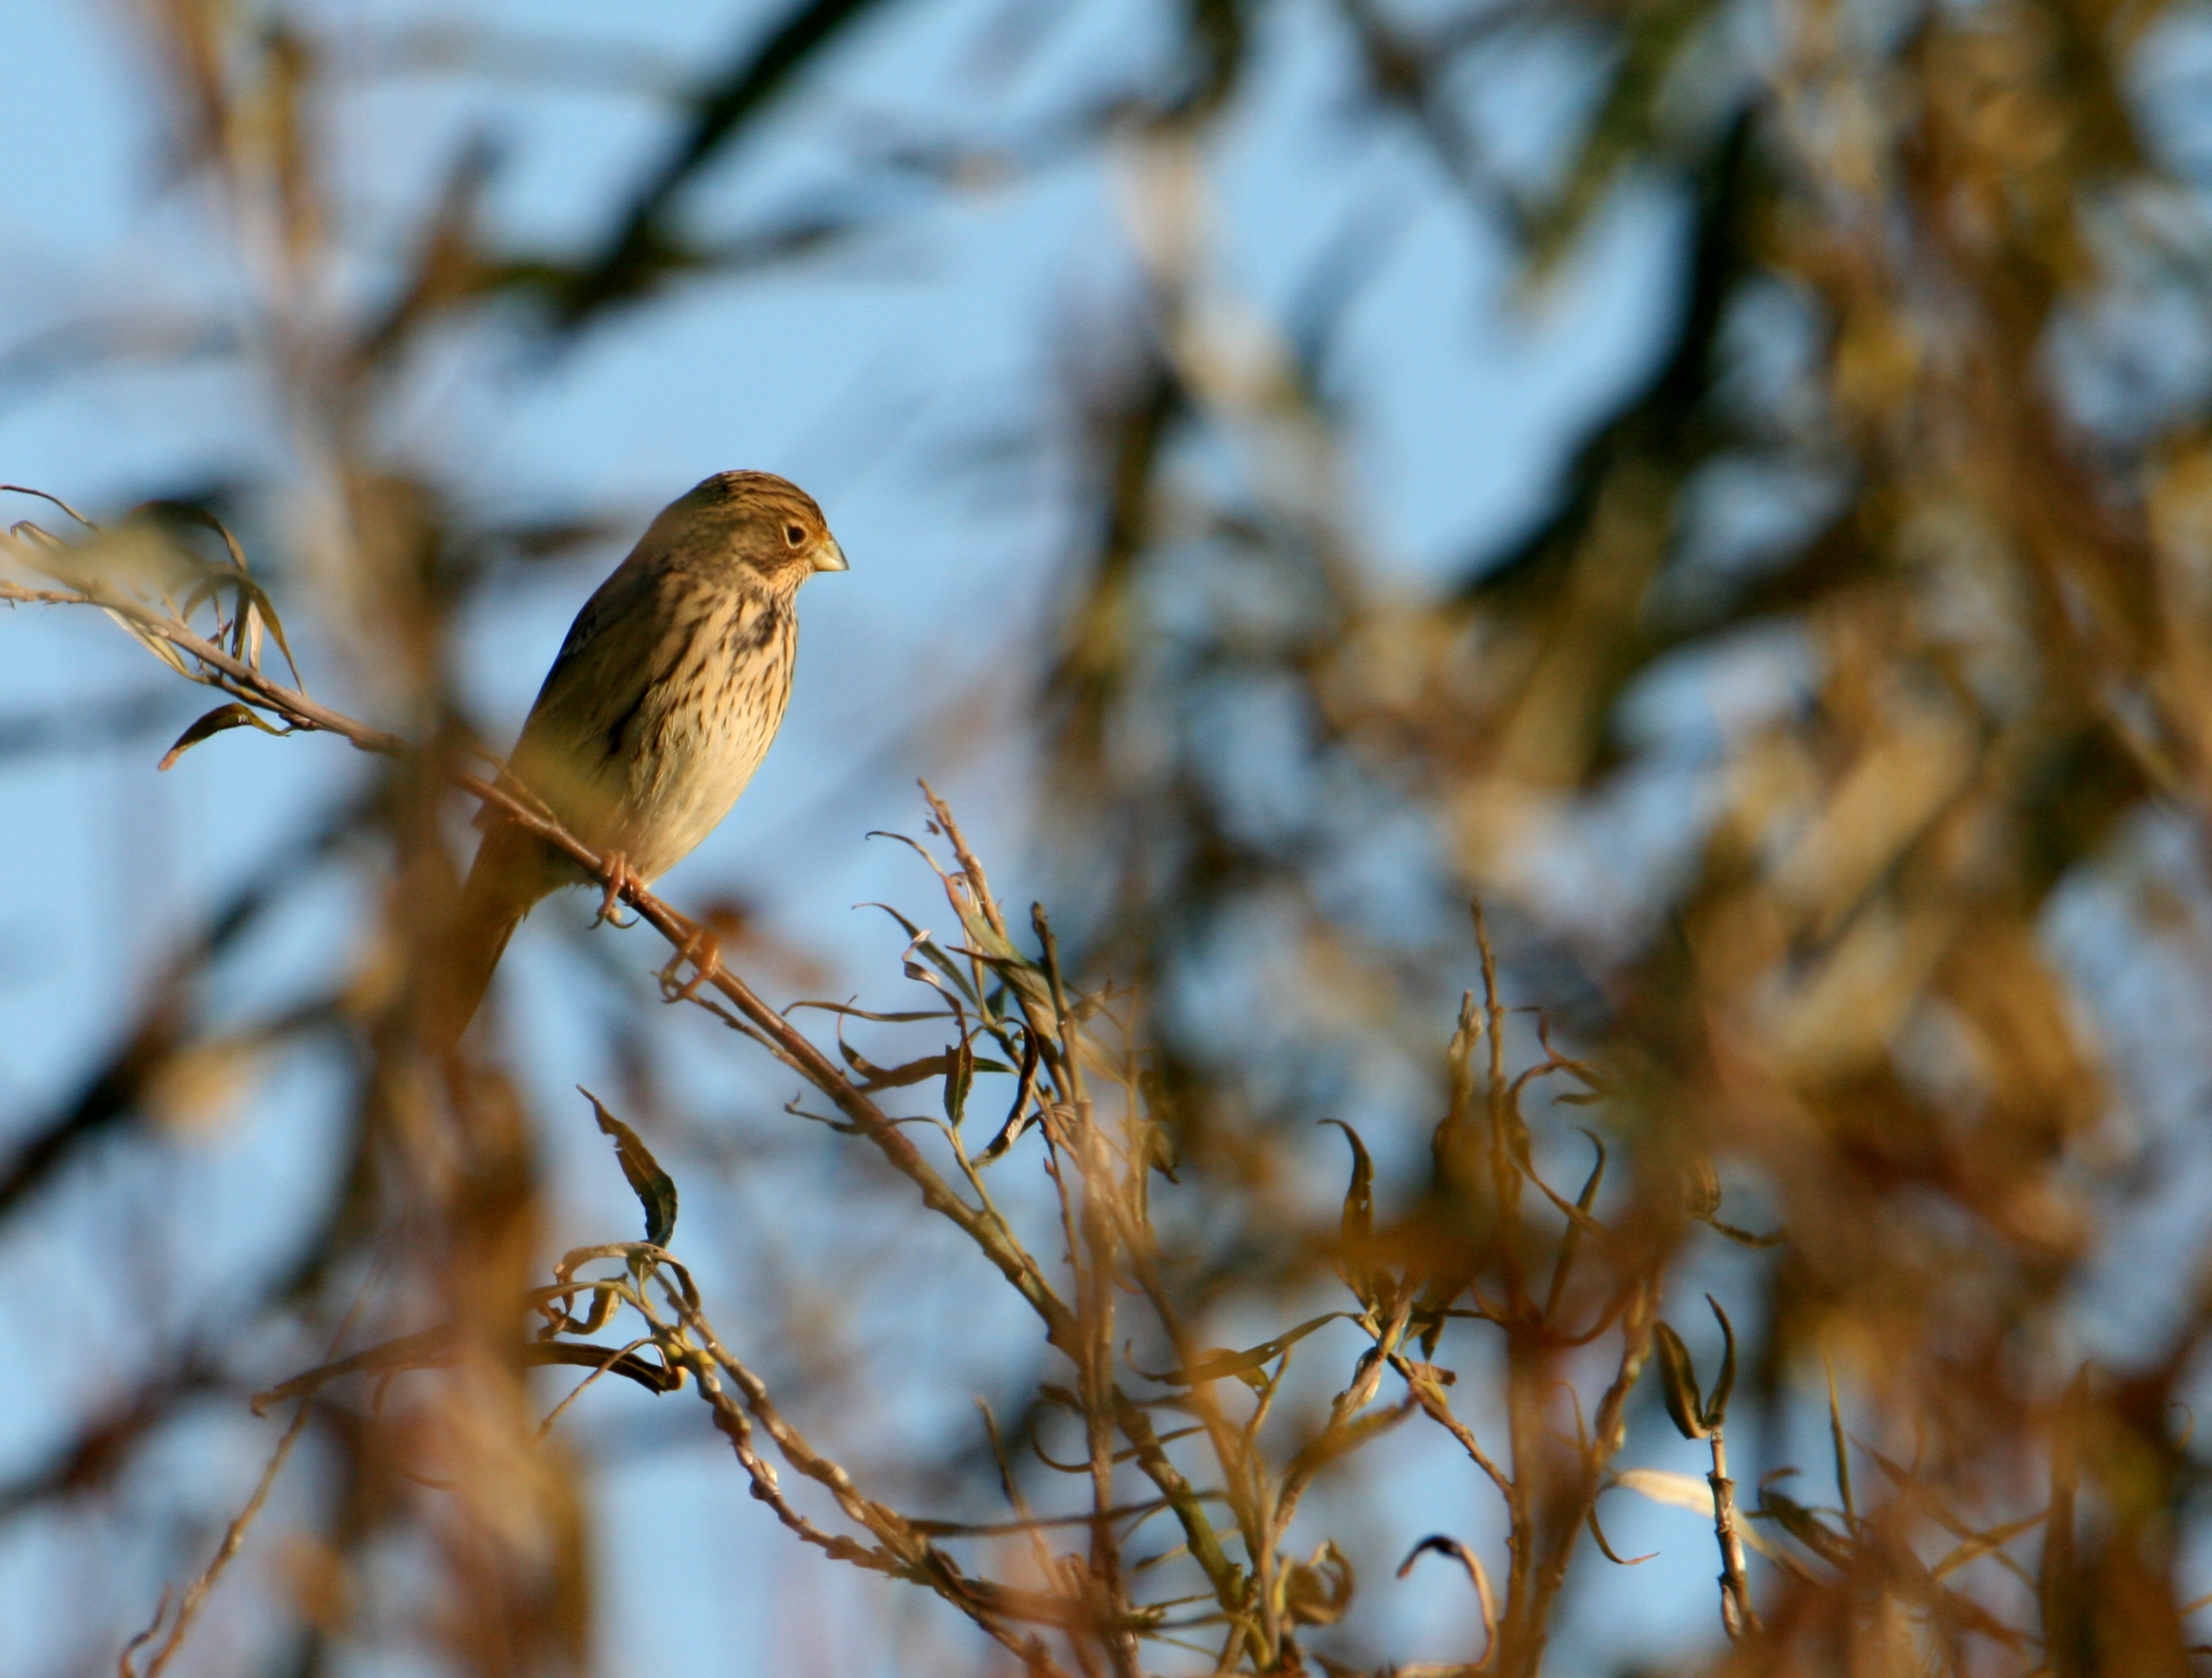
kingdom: Animalia
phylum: Chordata
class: Aves
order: Passeriformes
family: Emberizidae
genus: Emberiza
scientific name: Emberiza calandra
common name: Bomlærke
